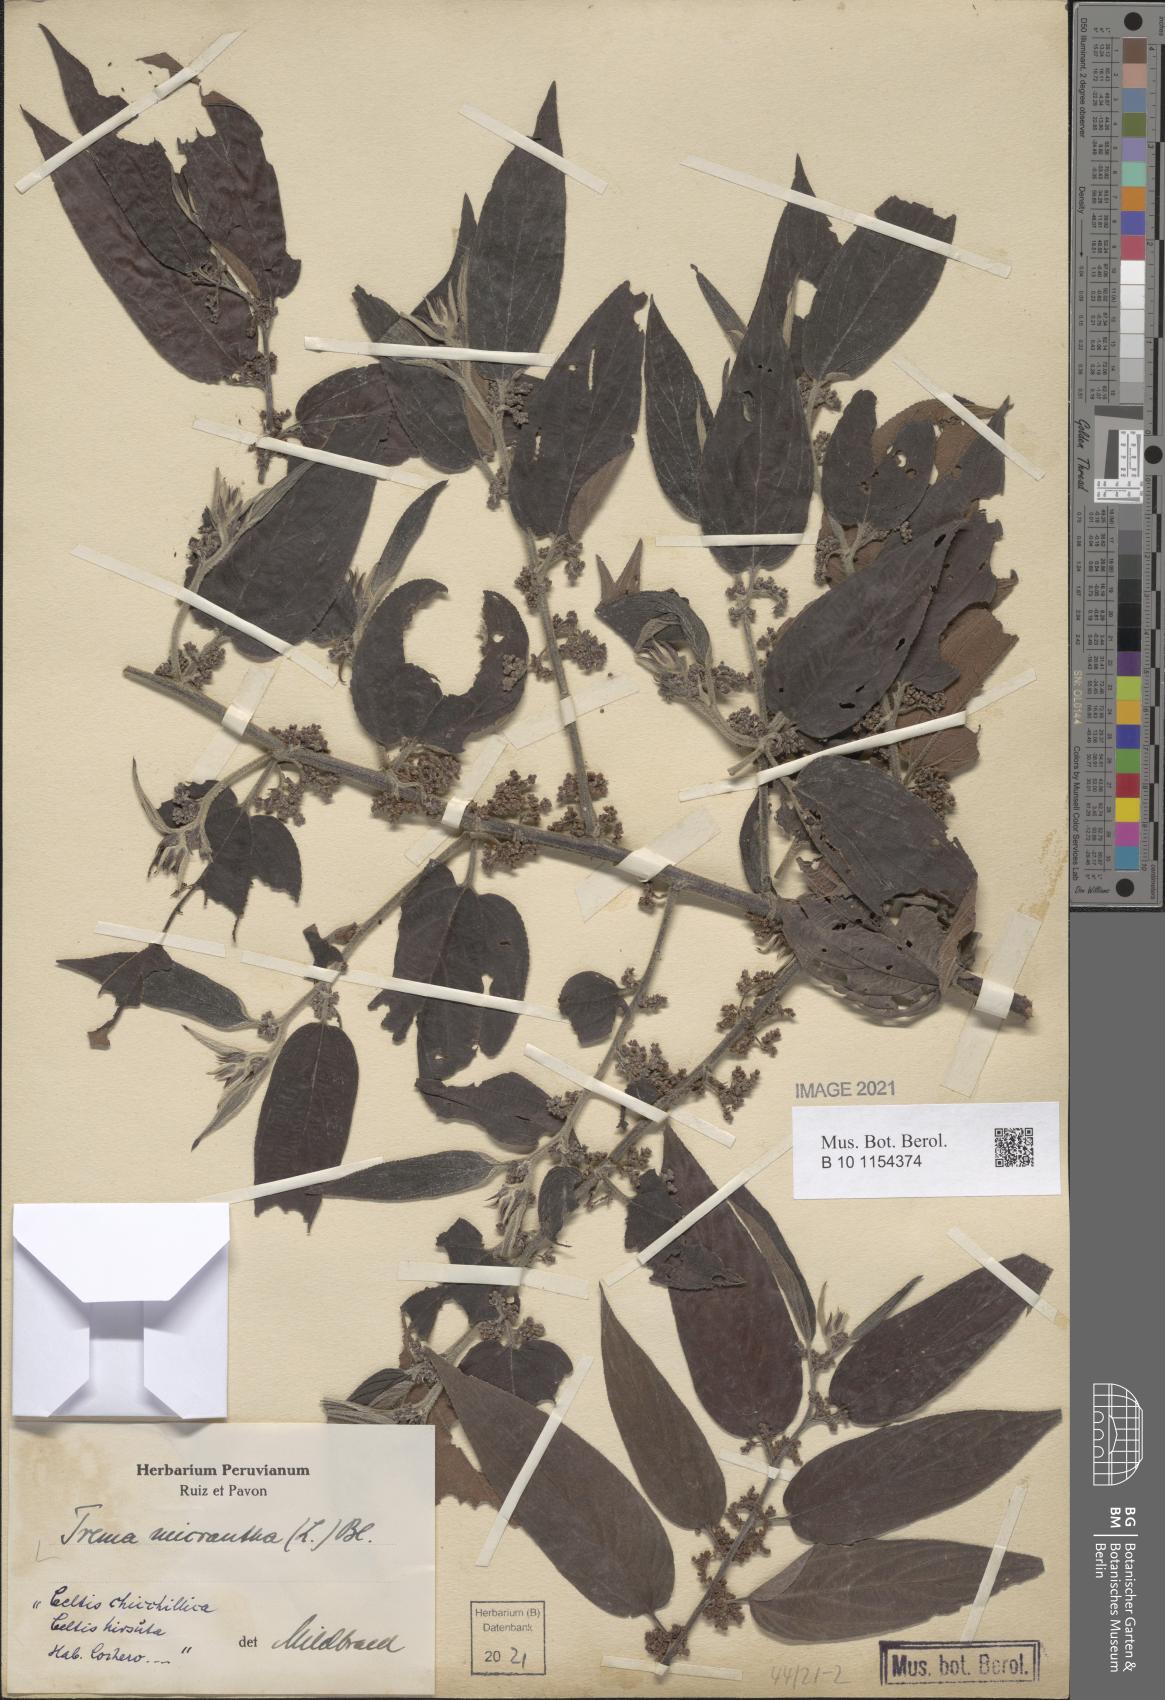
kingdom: Plantae
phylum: Tracheophyta
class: Magnoliopsida
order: Rosales
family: Cannabaceae
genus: Trema
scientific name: Trema micranthum
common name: Jamaican nettletree
